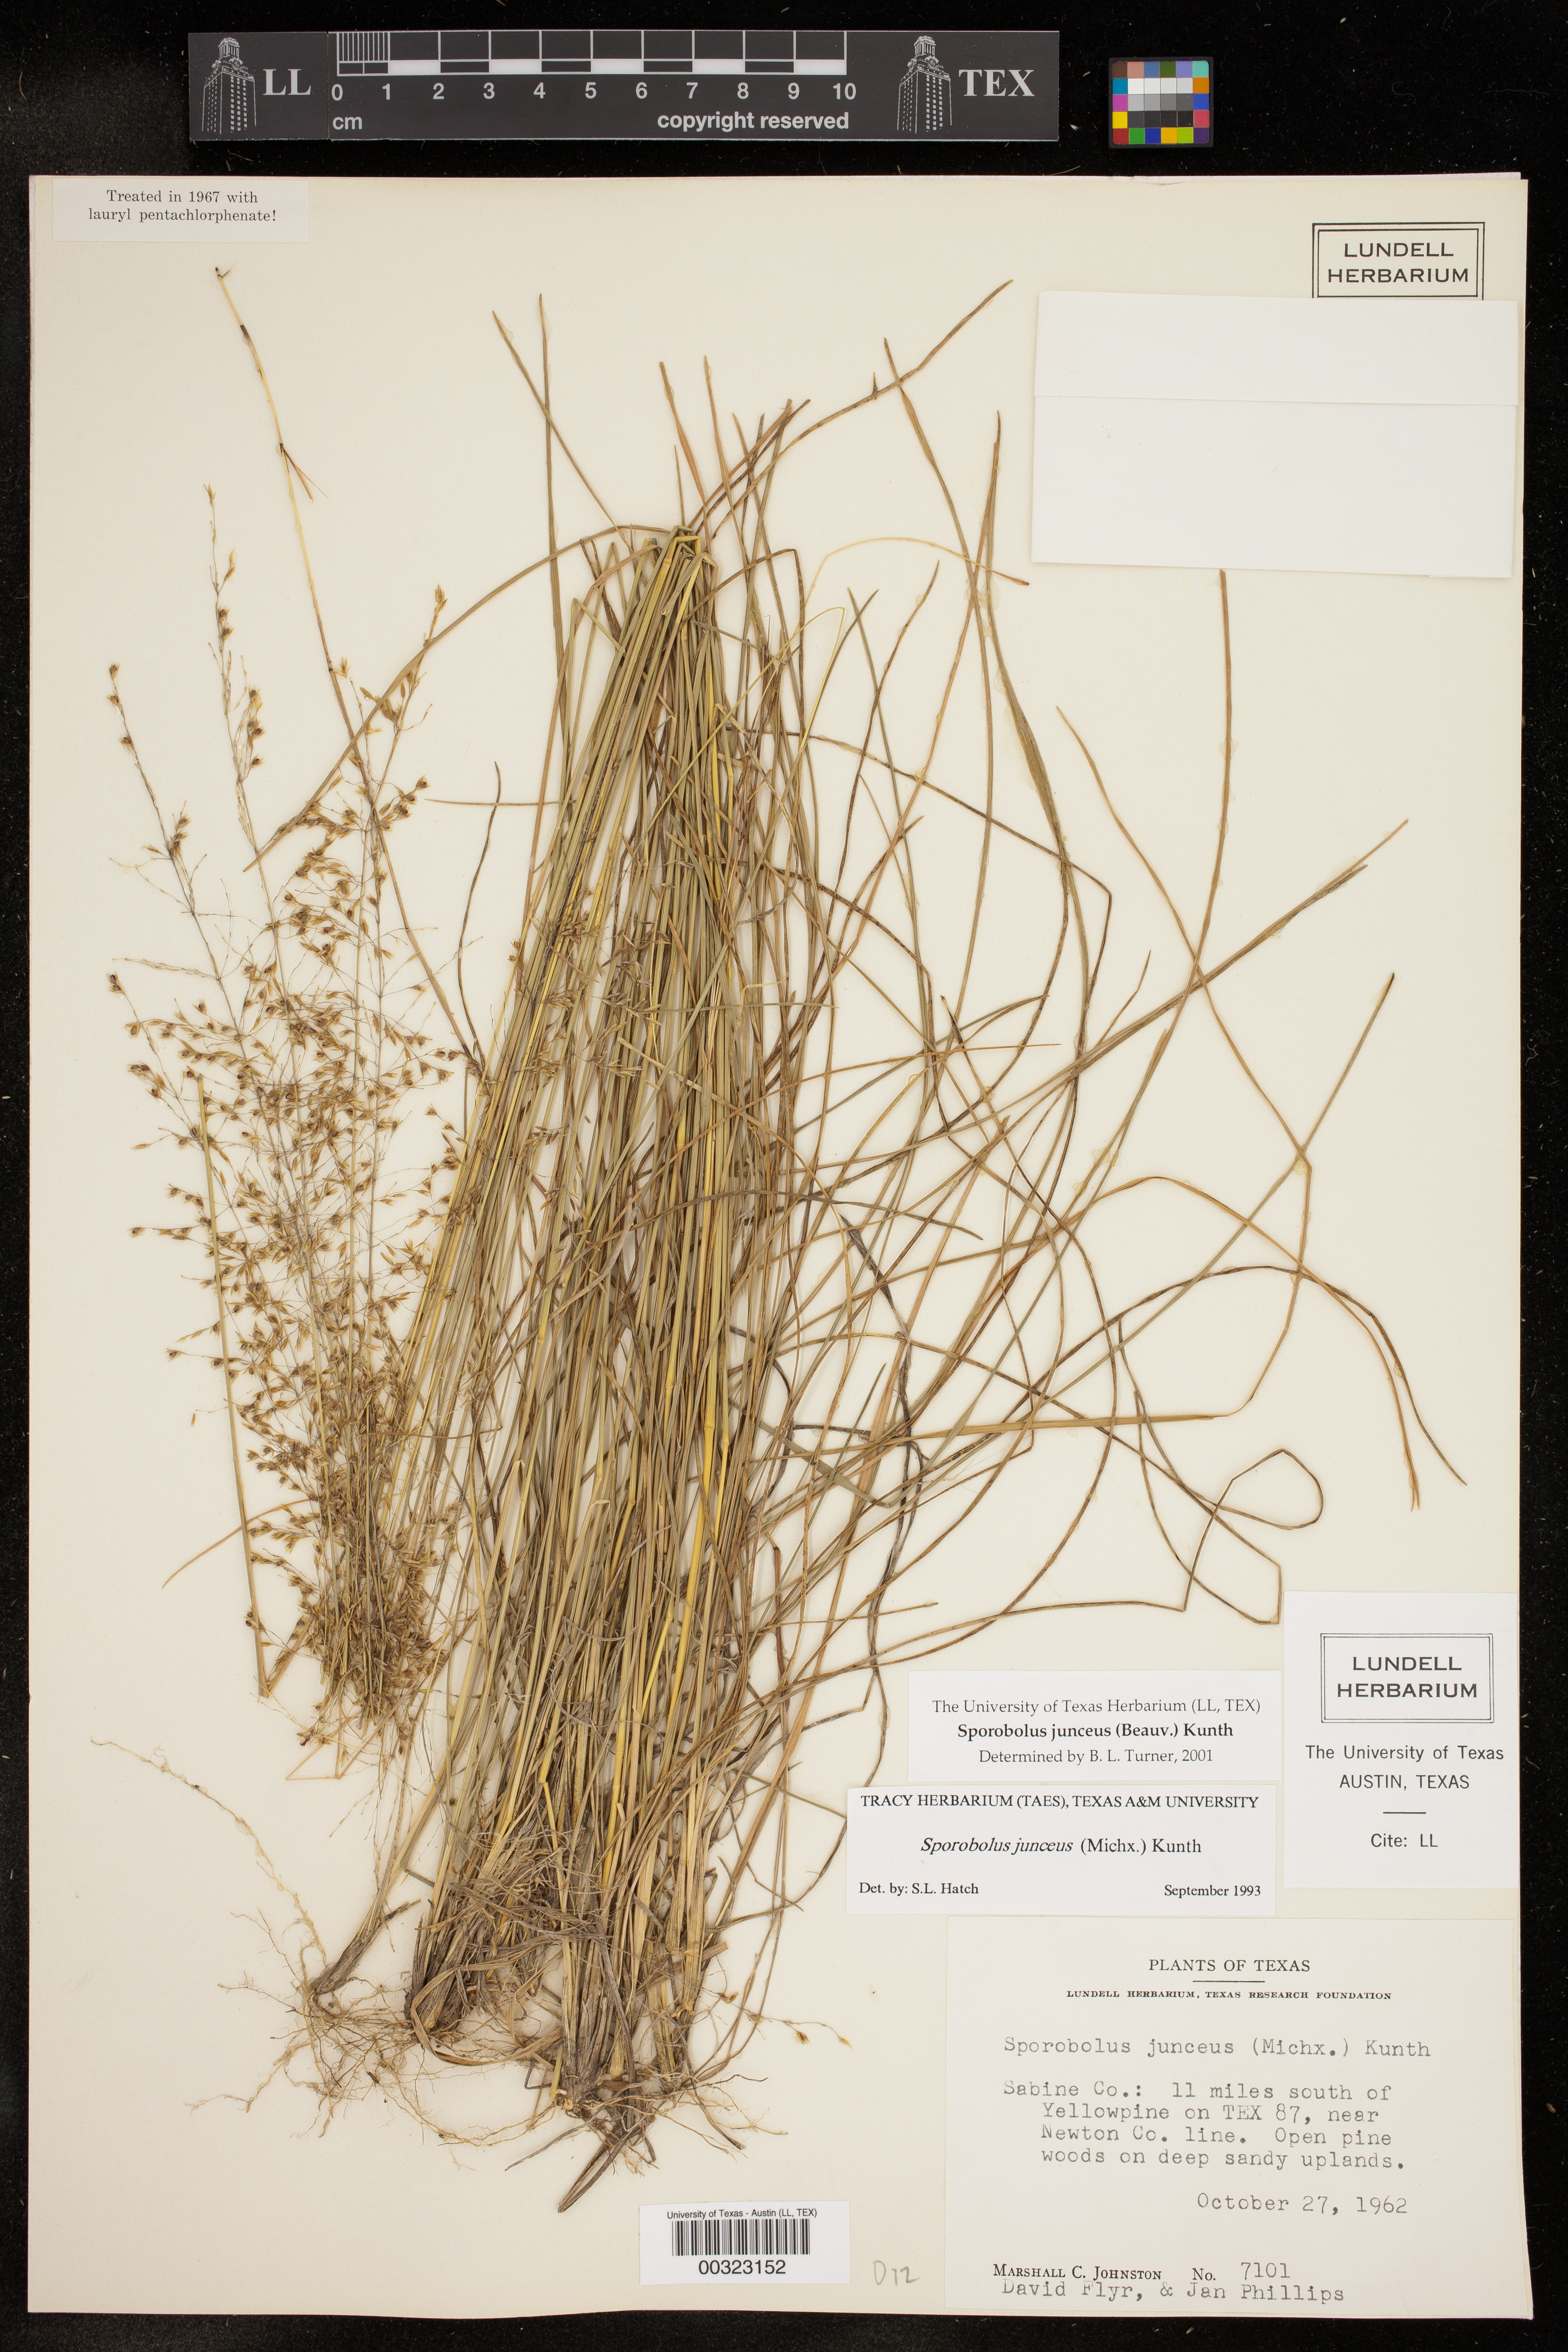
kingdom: Plantae
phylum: Tracheophyta
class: Liliopsida
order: Poales
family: Poaceae
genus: Sporobolus
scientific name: Sporobolus junceus
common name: Lizard grass
